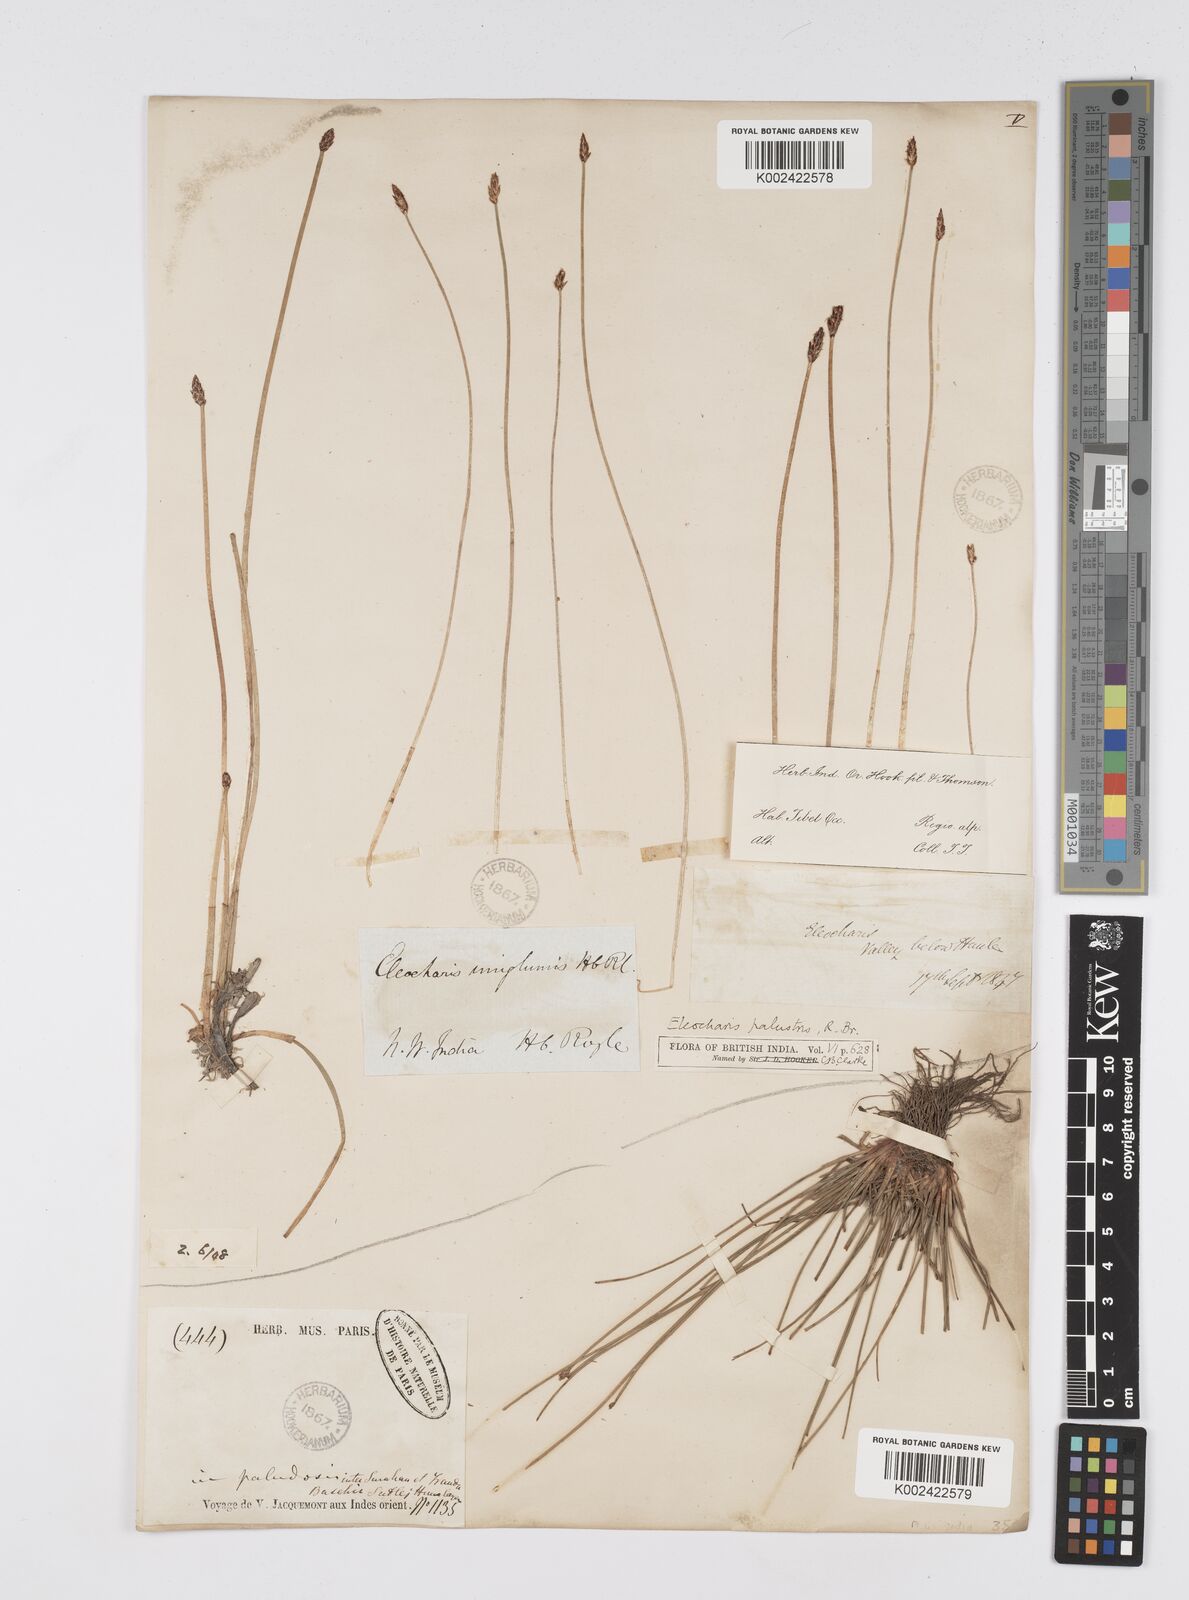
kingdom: Plantae
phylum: Tracheophyta
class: Liliopsida
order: Poales
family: Cyperaceae
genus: Eleocharis
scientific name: Eleocharis uniglumis
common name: Slender spike-rush
